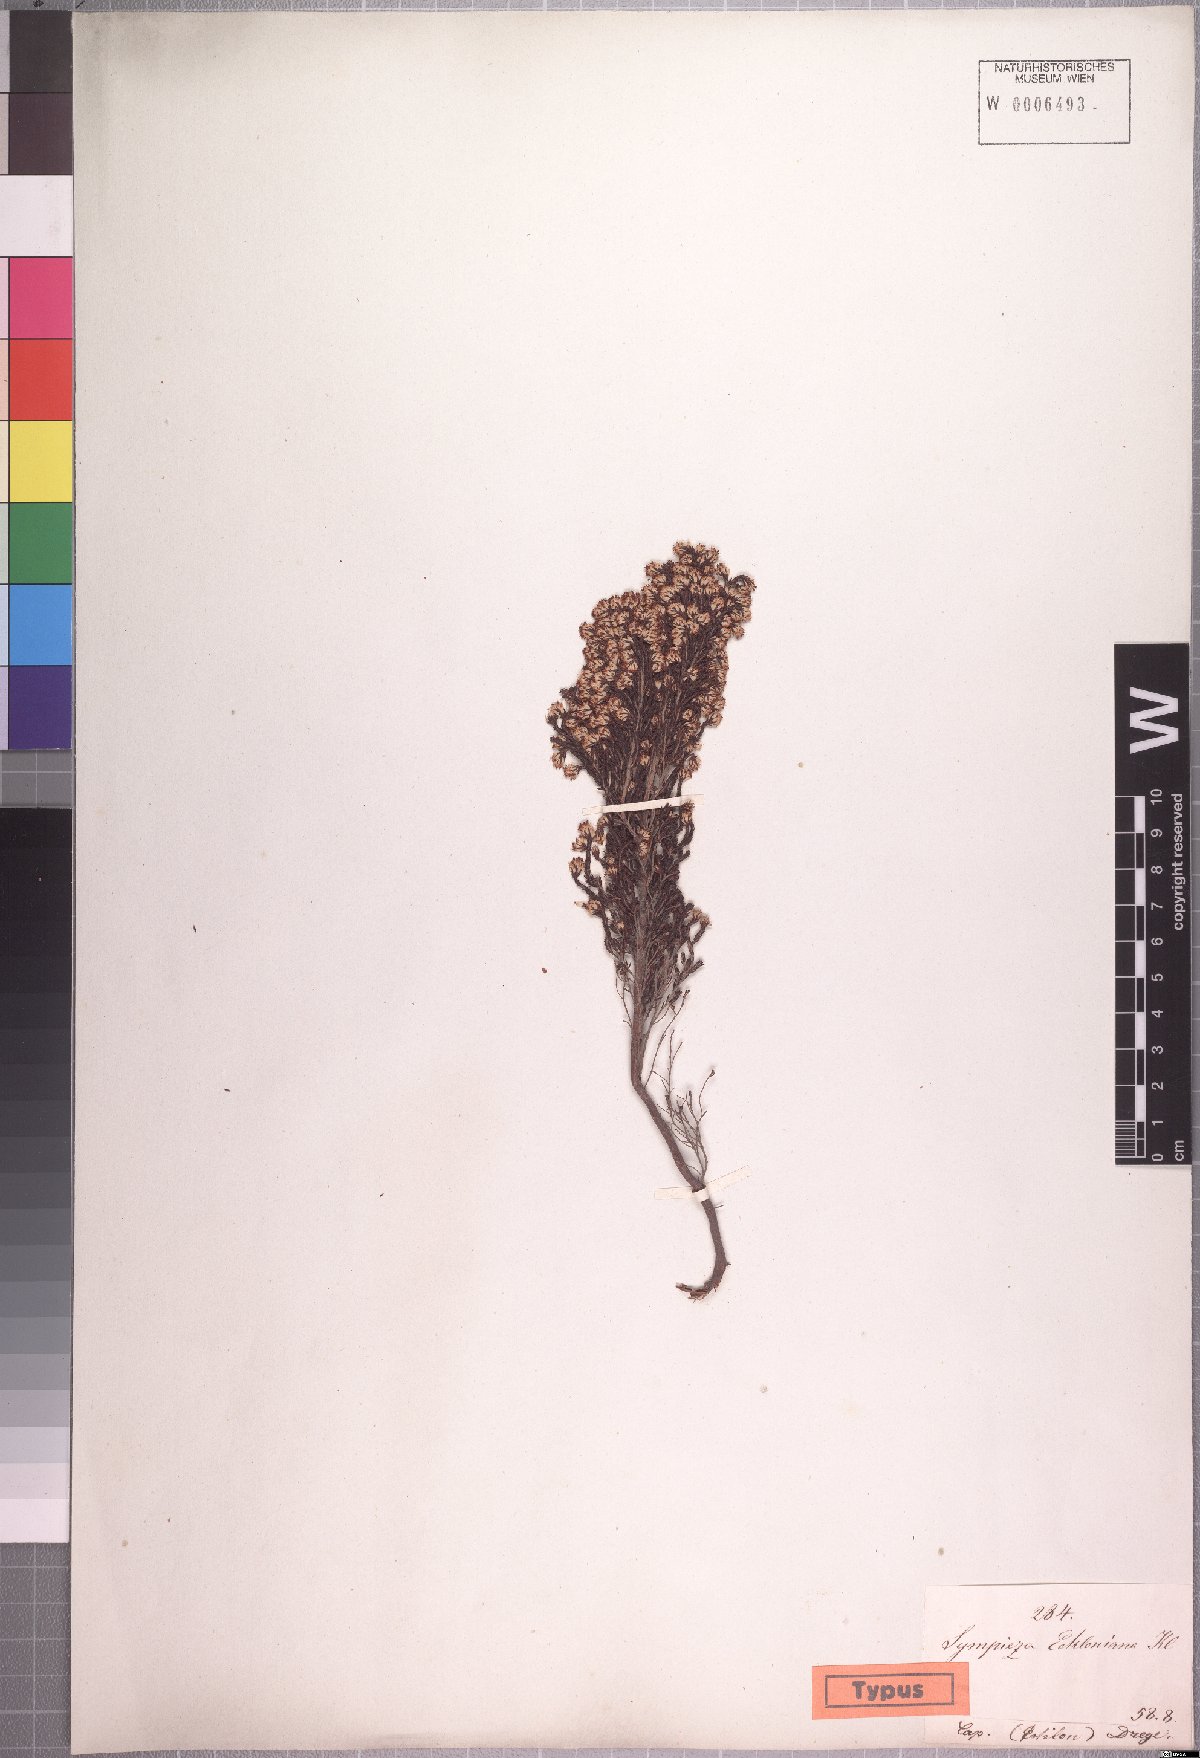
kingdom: Plantae
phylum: Tracheophyta
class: Magnoliopsida
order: Ericales
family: Ericaceae
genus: Erica
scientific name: Erica ecklonii
